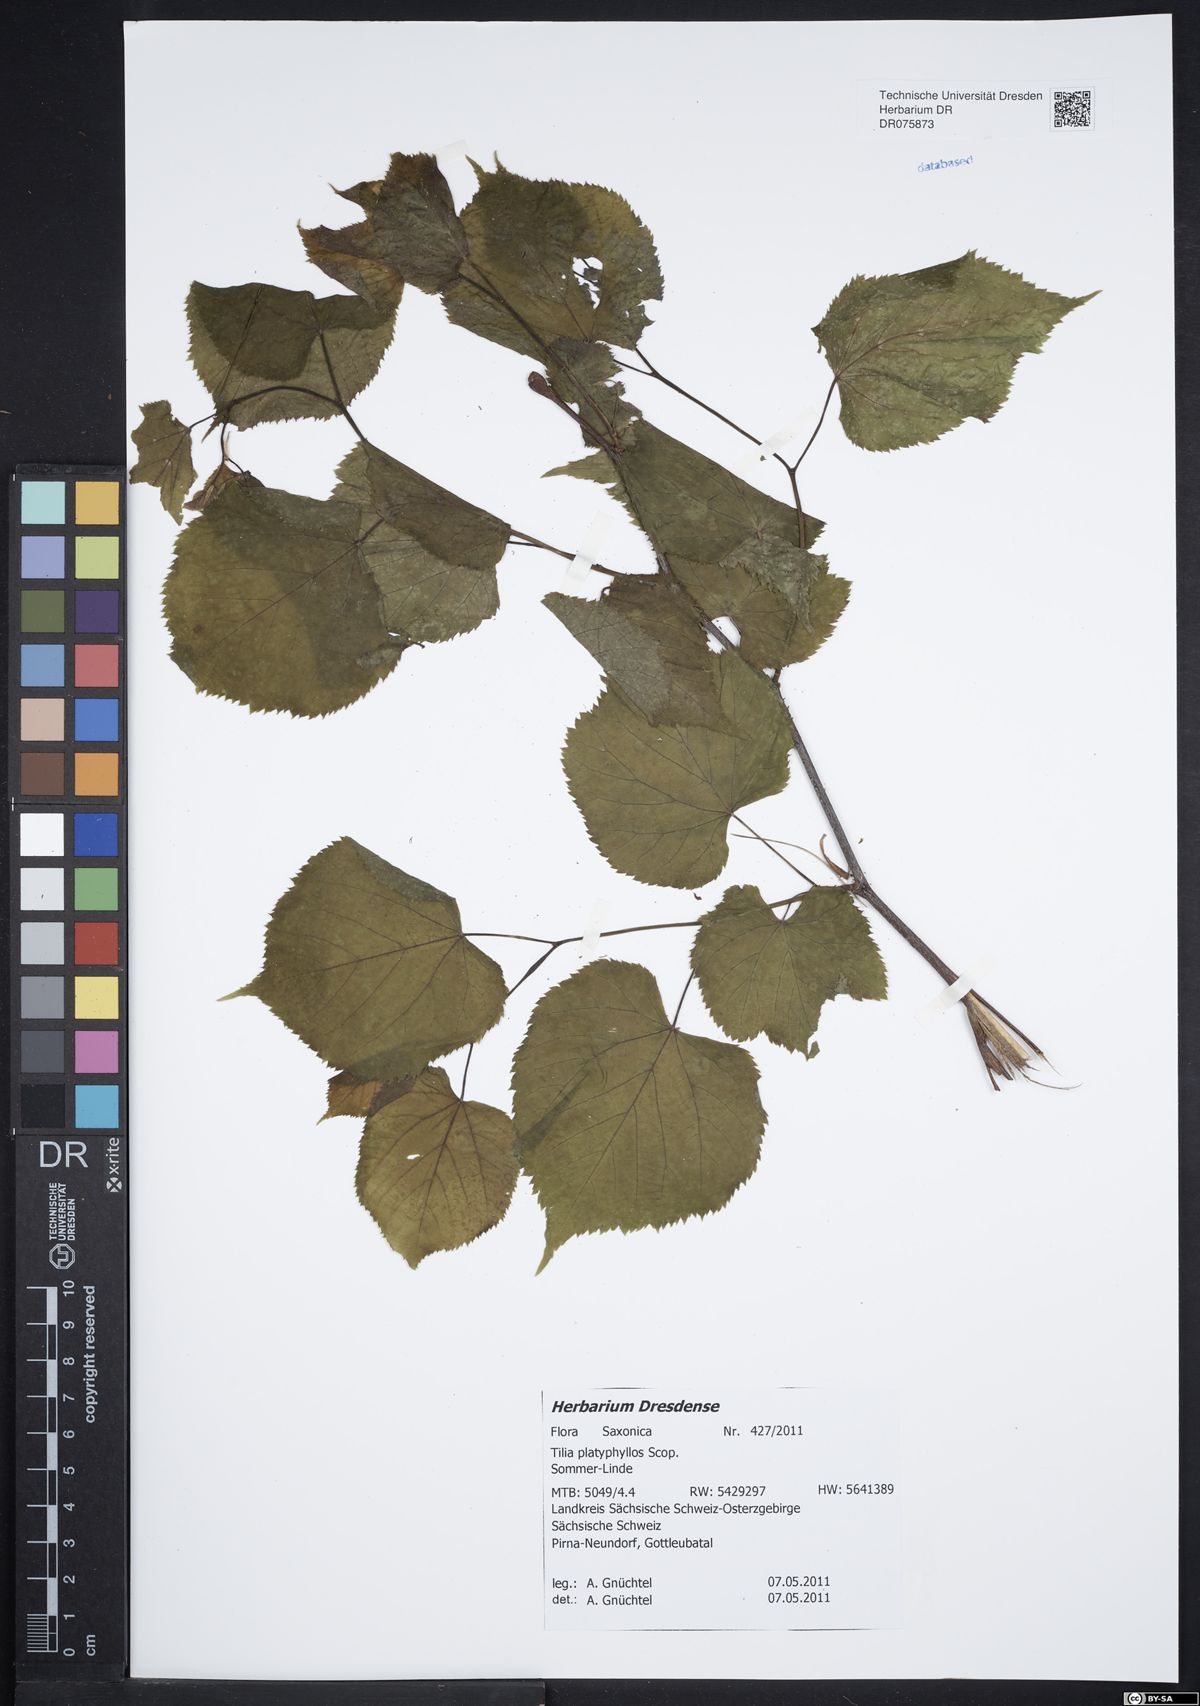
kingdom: Plantae
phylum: Tracheophyta
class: Magnoliopsida
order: Malvales
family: Malvaceae
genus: Tilia
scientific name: Tilia platyphyllos
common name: Large-leaved lime
